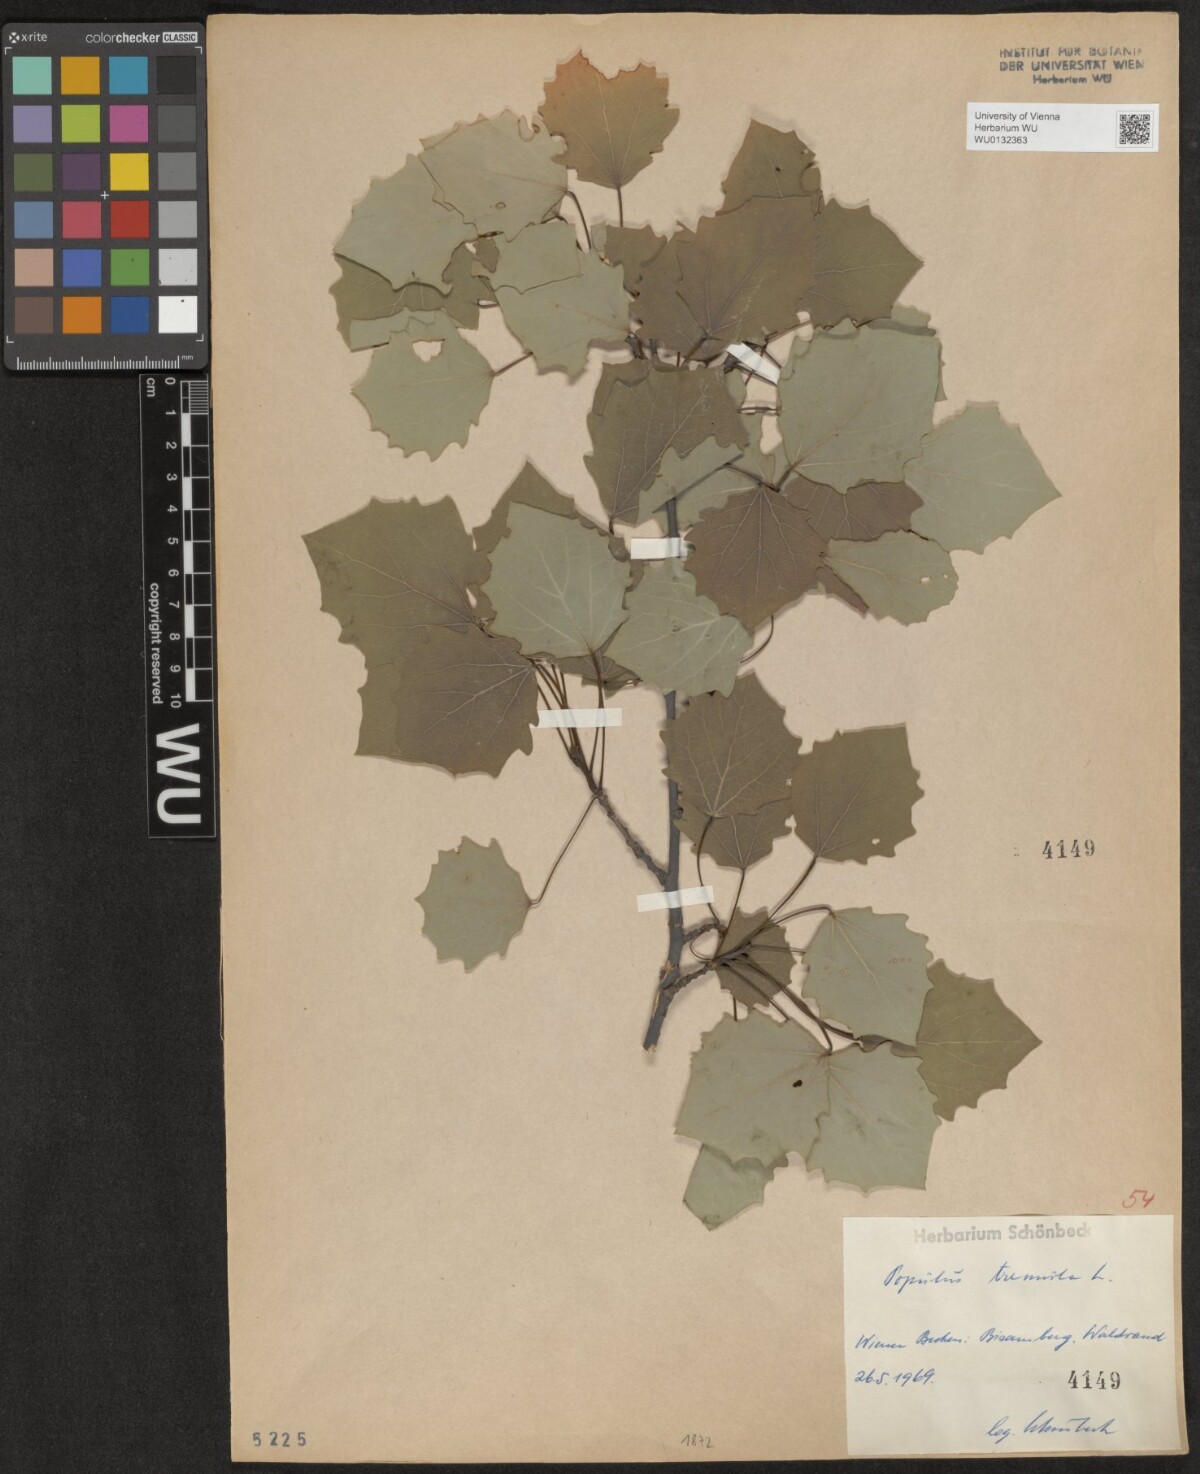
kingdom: Plantae
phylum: Tracheophyta
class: Magnoliopsida
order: Malpighiales
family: Salicaceae
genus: Populus
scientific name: Populus tremula
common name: European aspen
